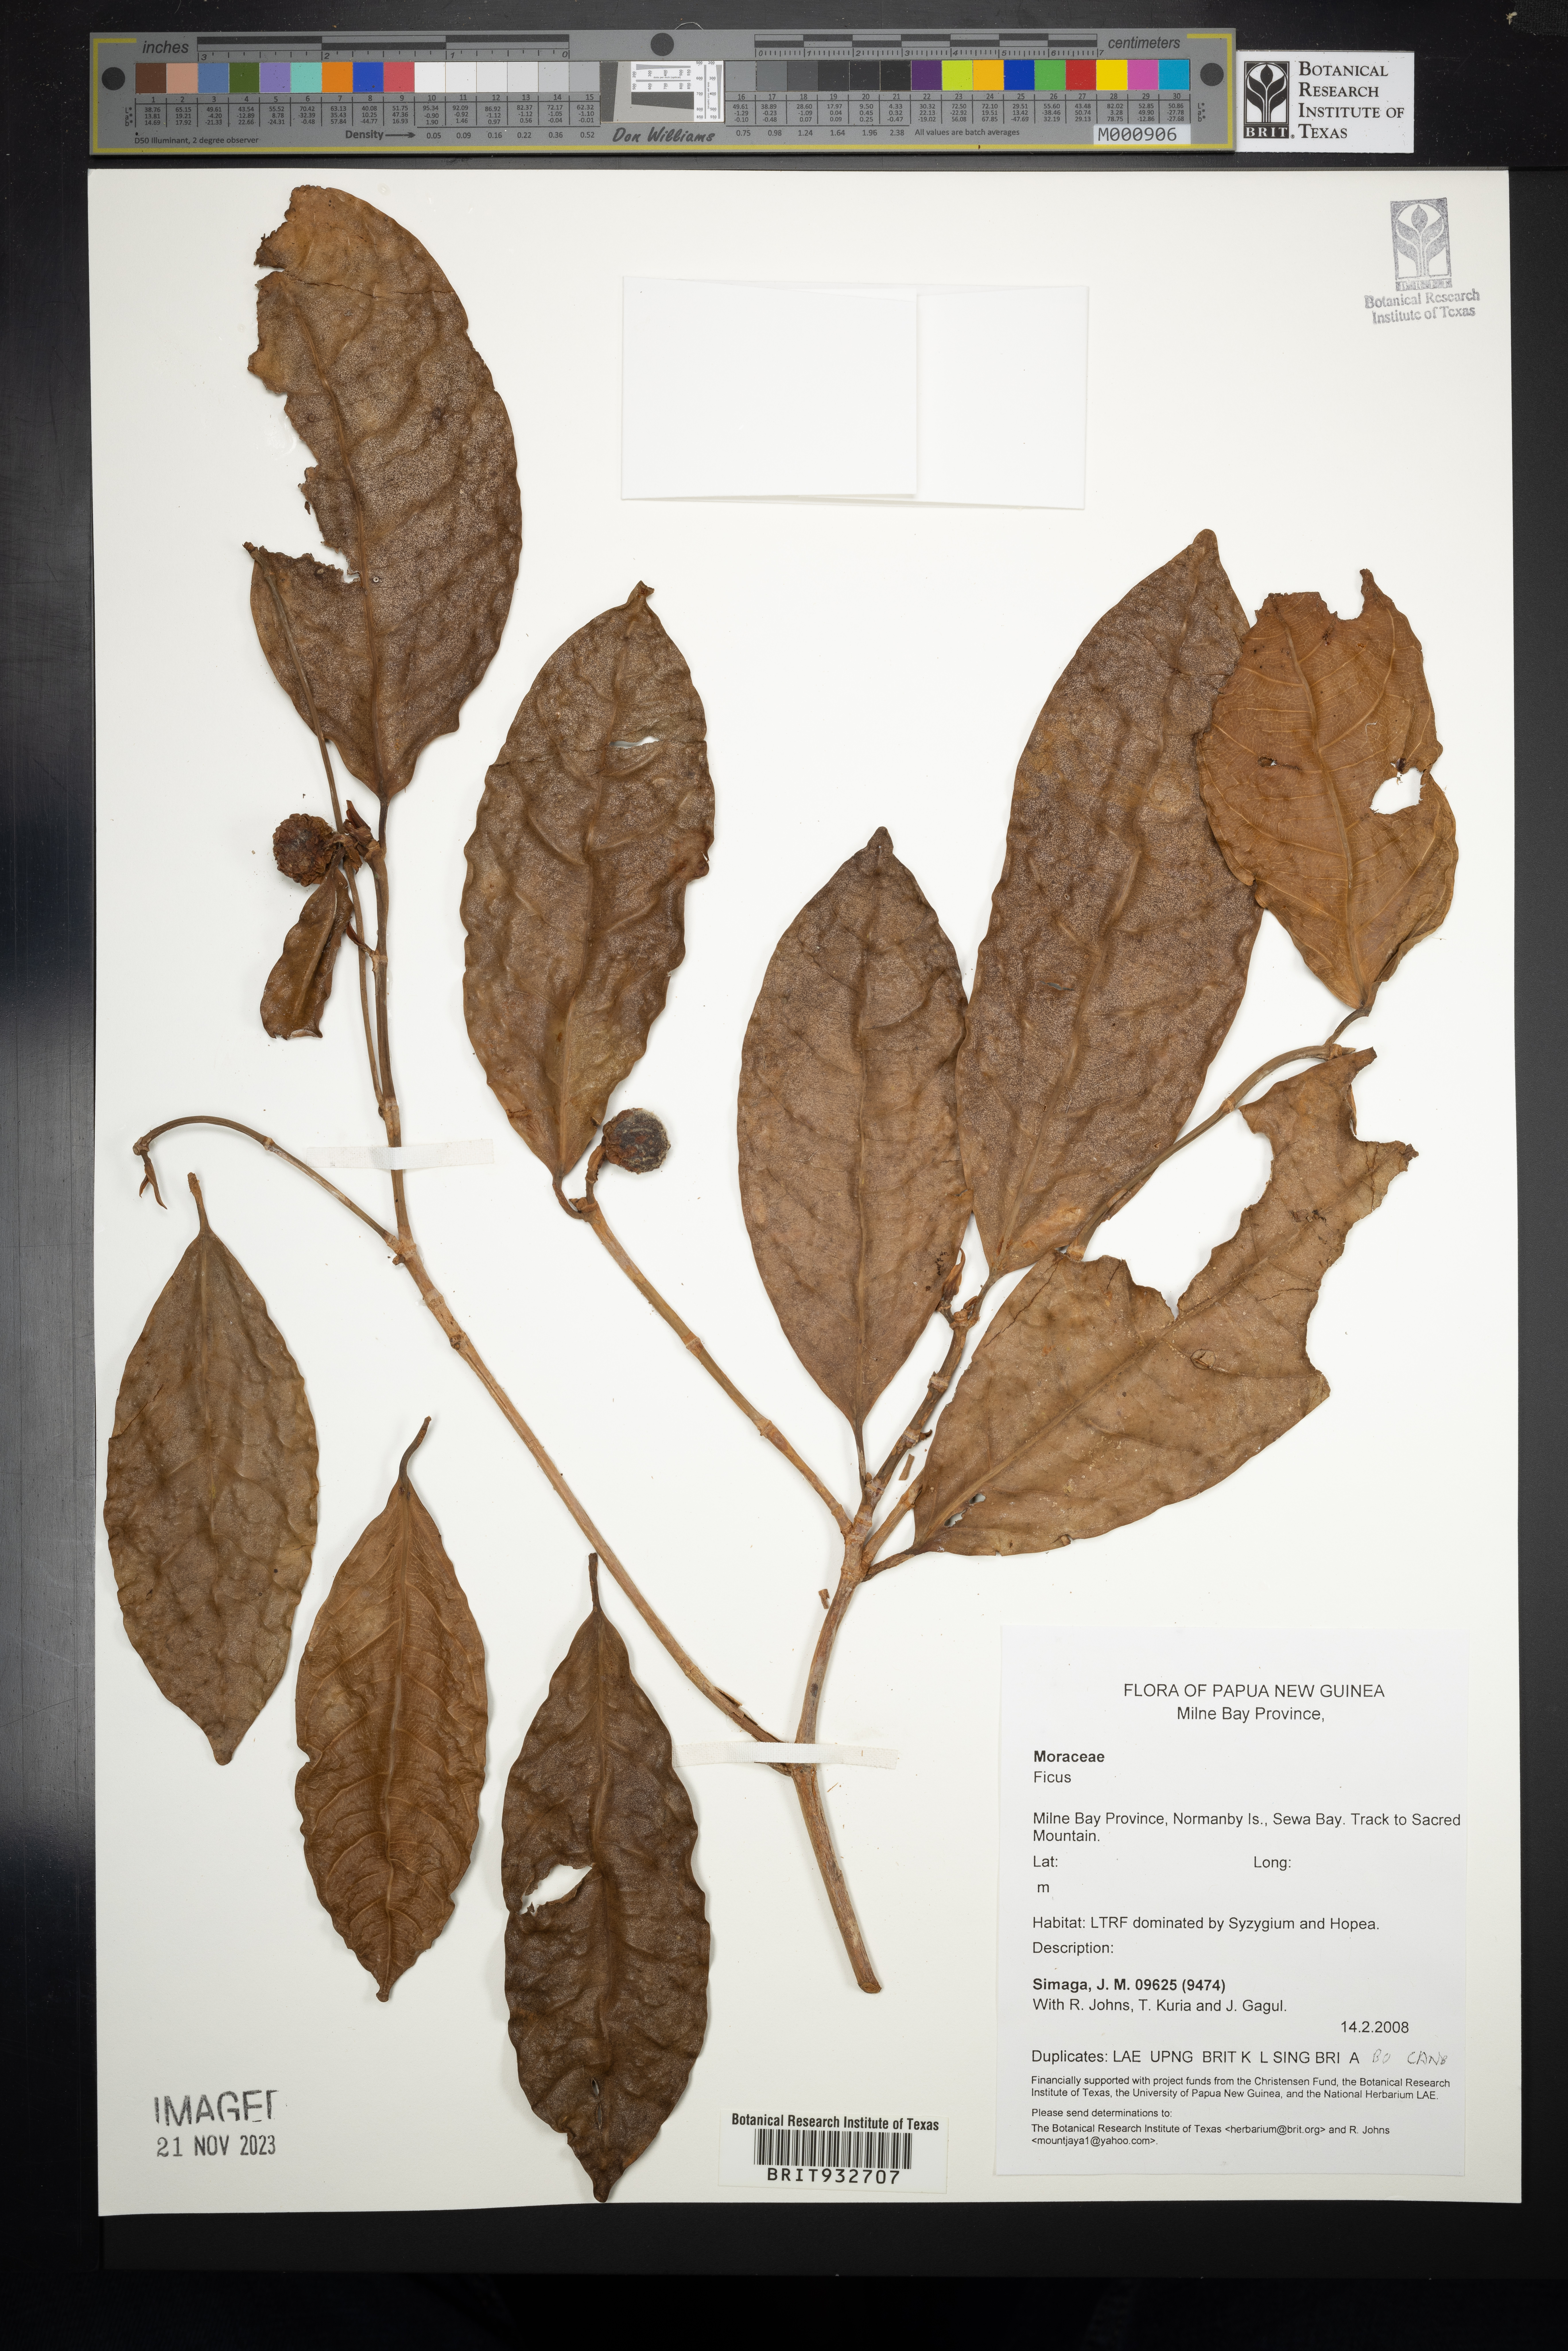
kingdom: Plantae
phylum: Tracheophyta
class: Magnoliopsida
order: Rosales
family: Moraceae
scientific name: Moraceae
